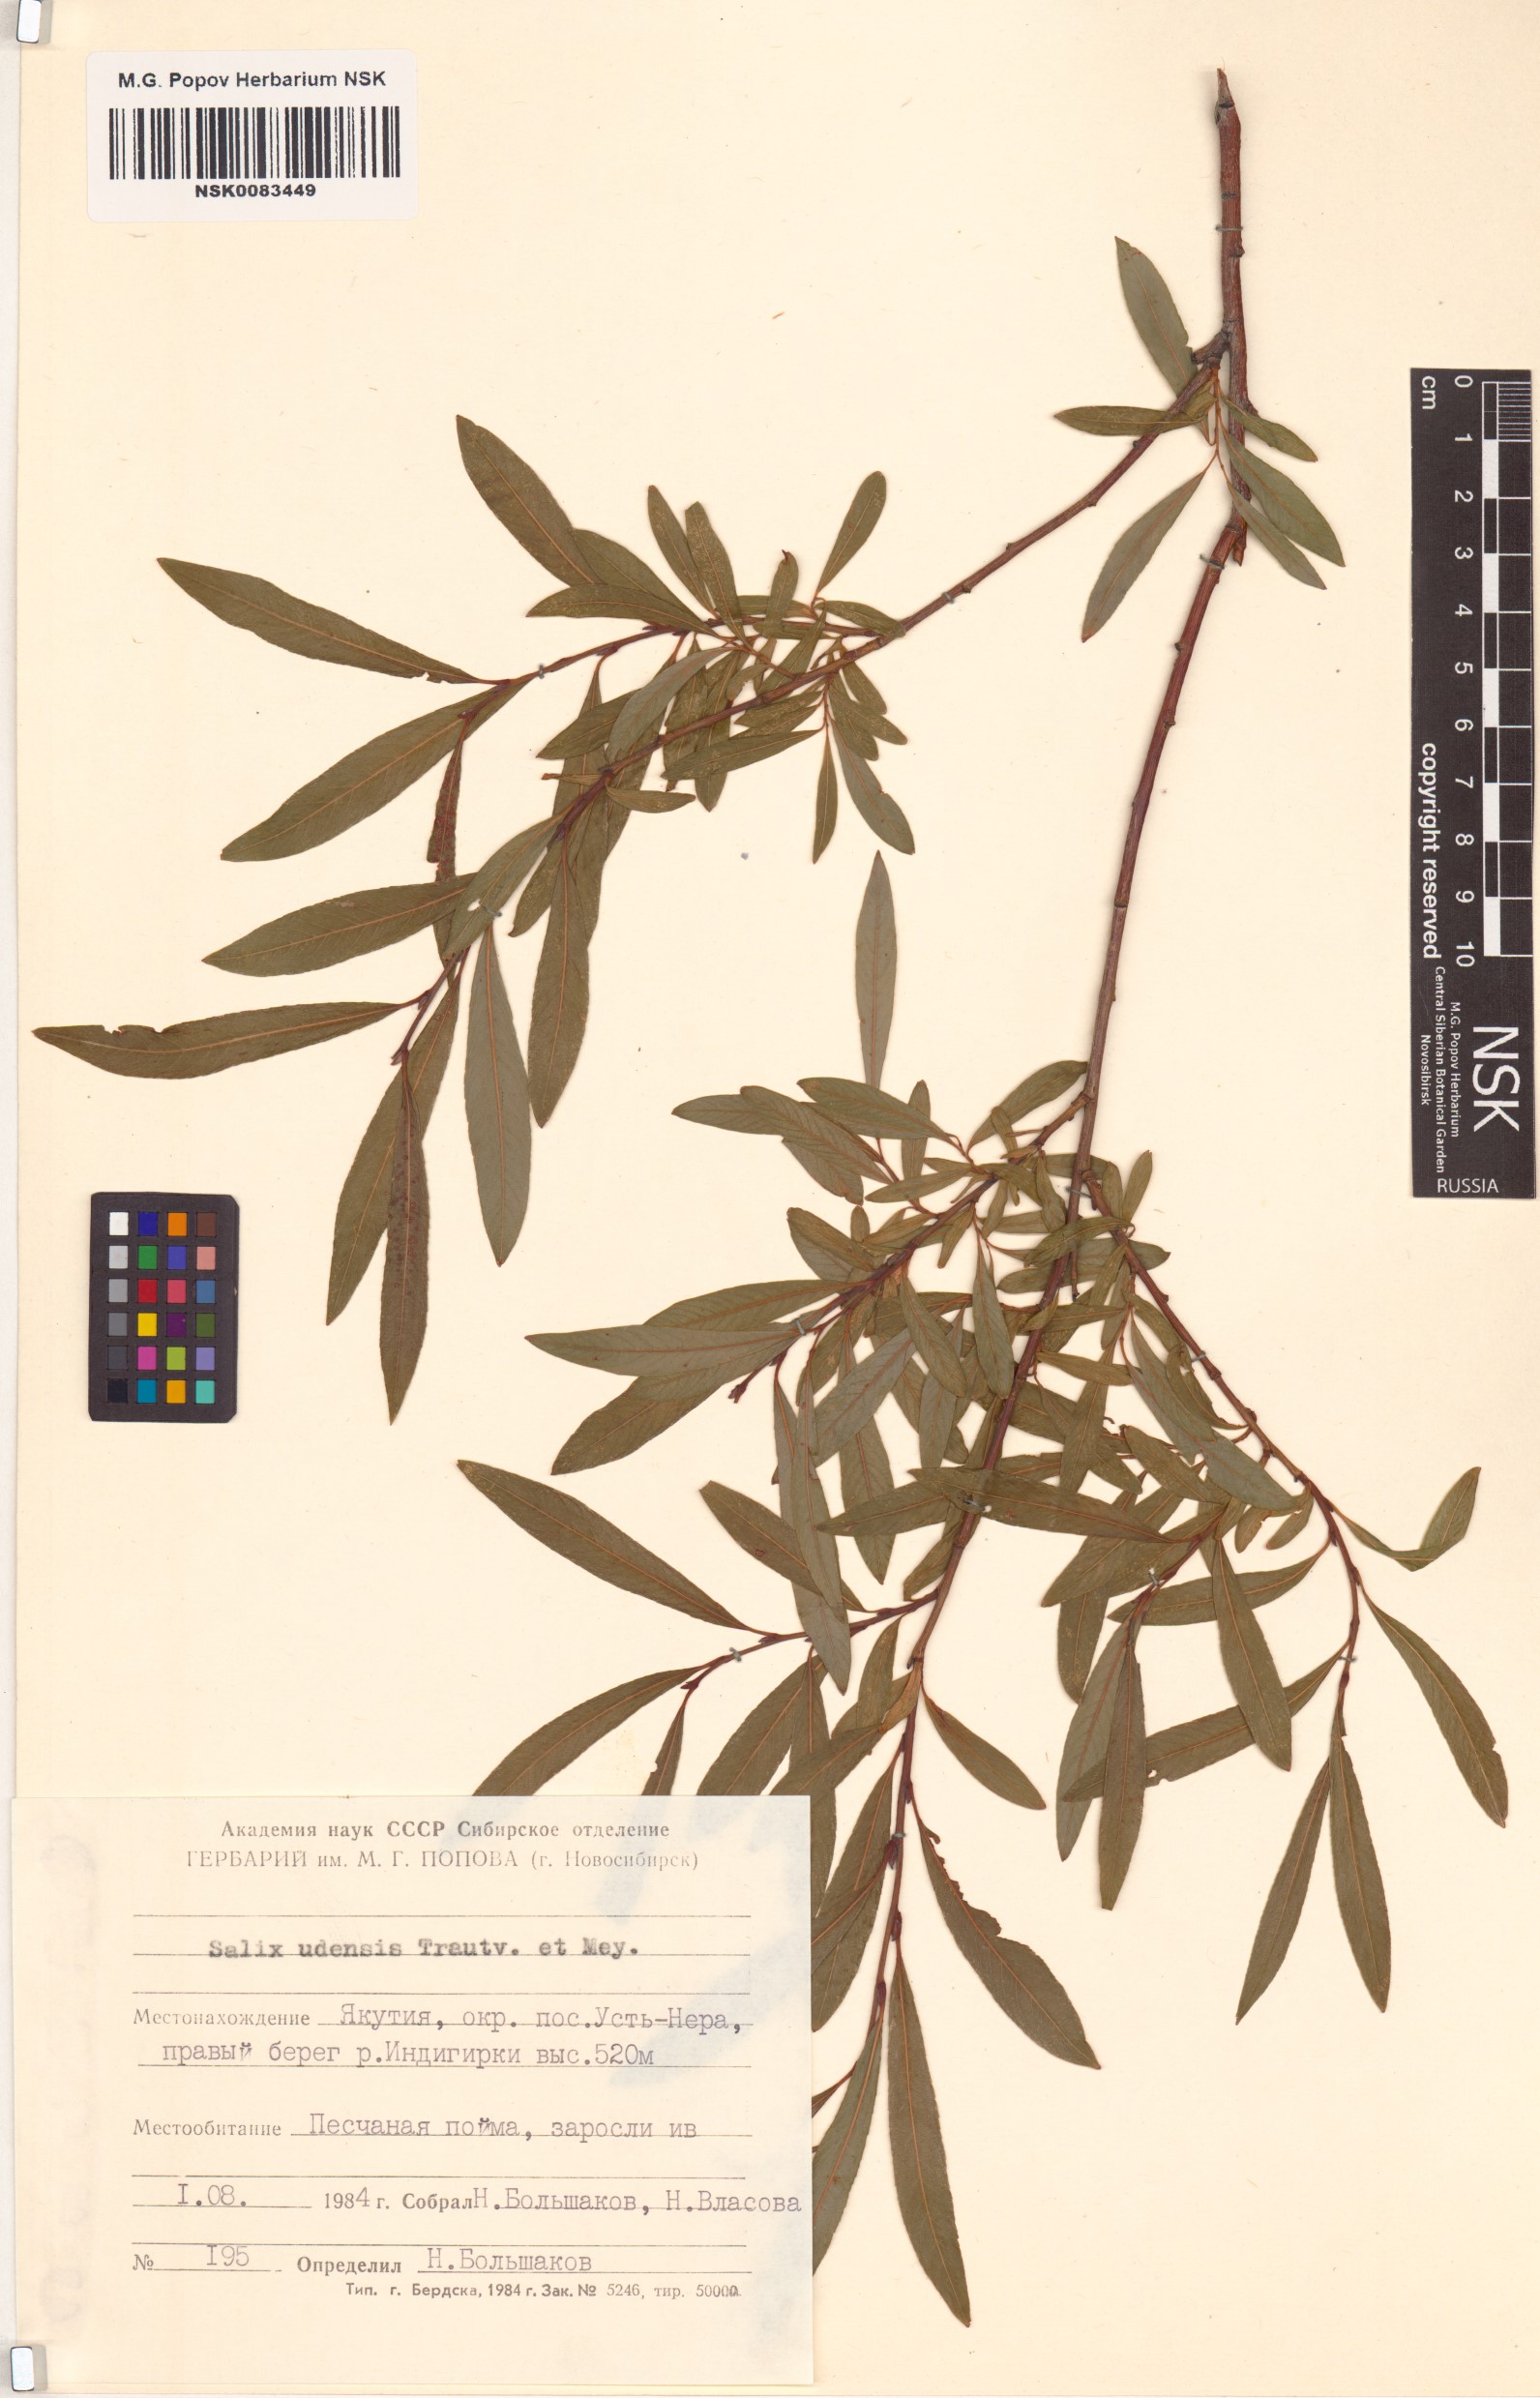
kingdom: Plantae
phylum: Tracheophyta
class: Magnoliopsida
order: Malpighiales
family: Salicaceae
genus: Salix
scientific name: Salix udensis
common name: Sachalin willow
